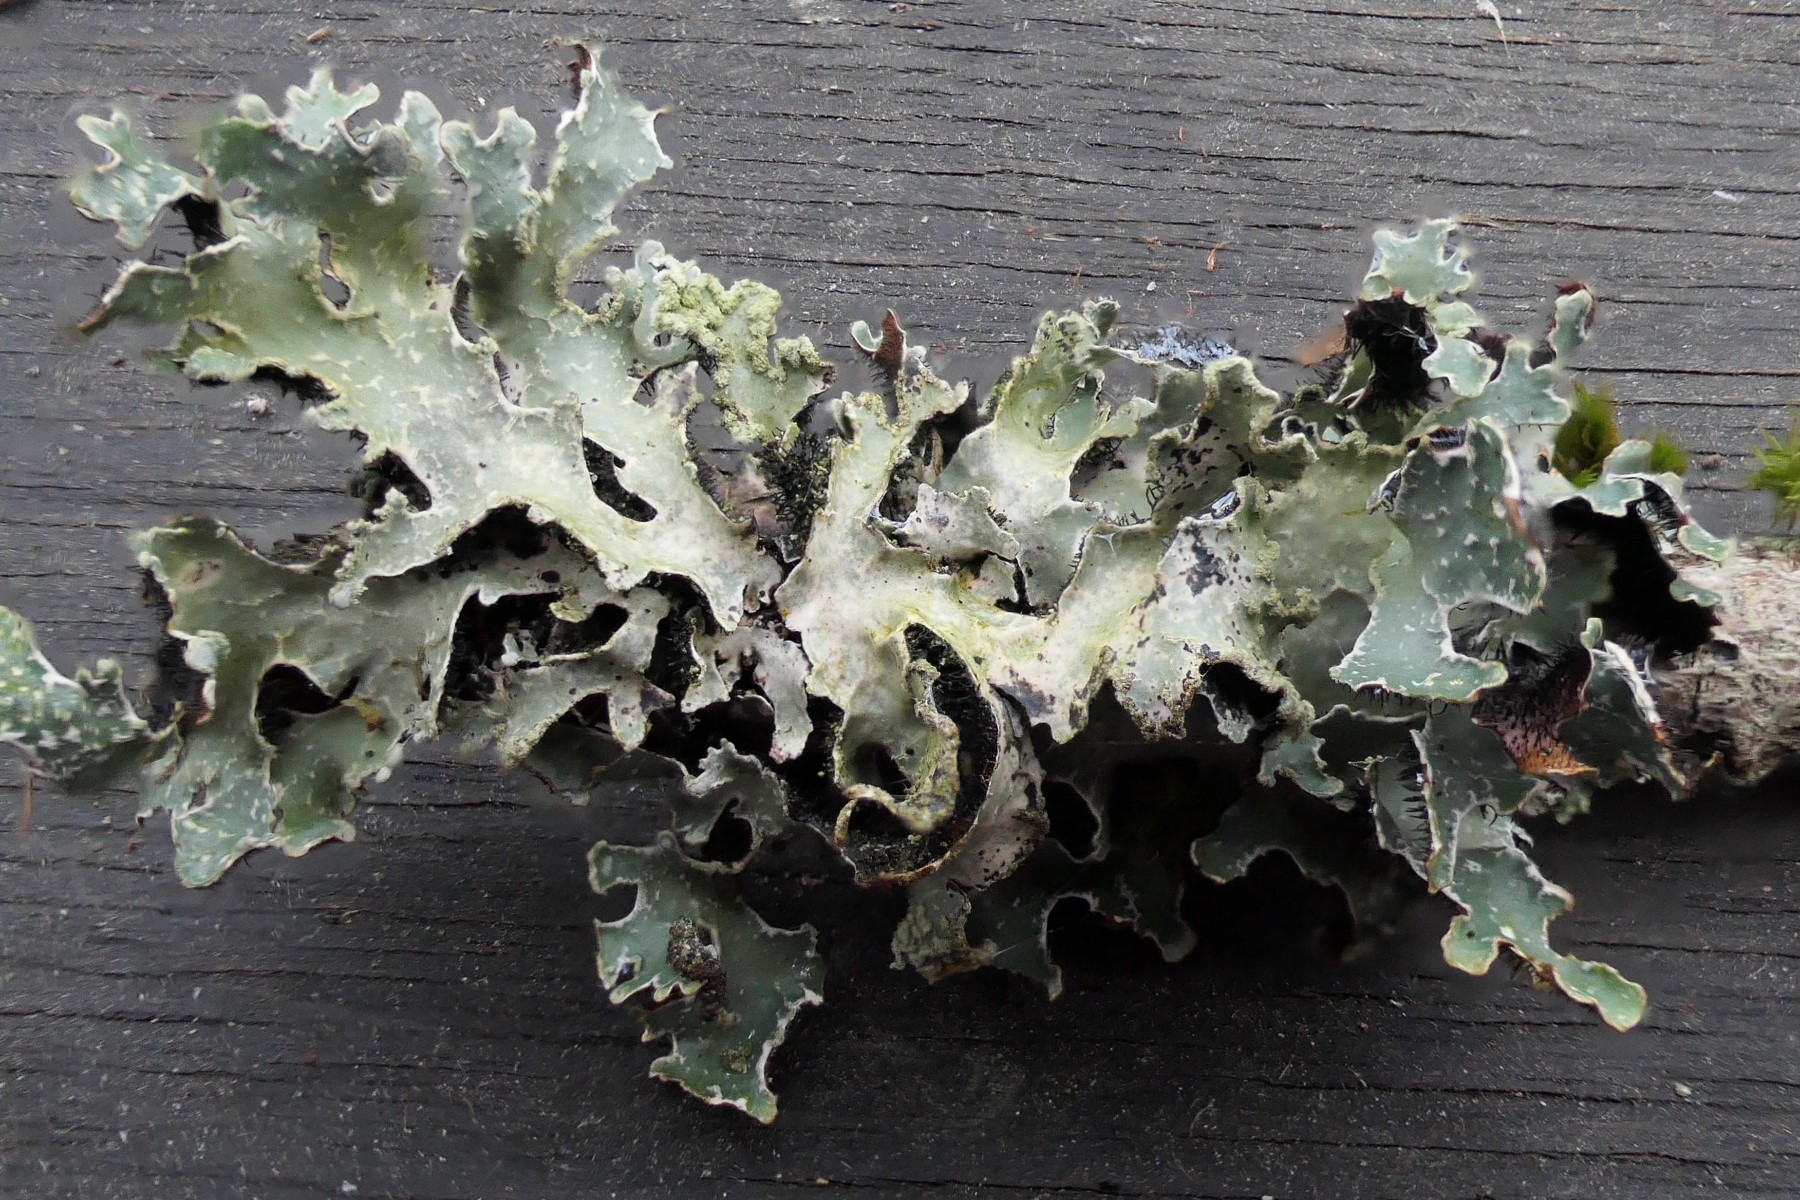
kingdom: Fungi
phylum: Ascomycota
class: Lecanoromycetes
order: Lecanorales
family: Parmeliaceae
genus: Parmelia
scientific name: Parmelia sulcata
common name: rynket skållav
